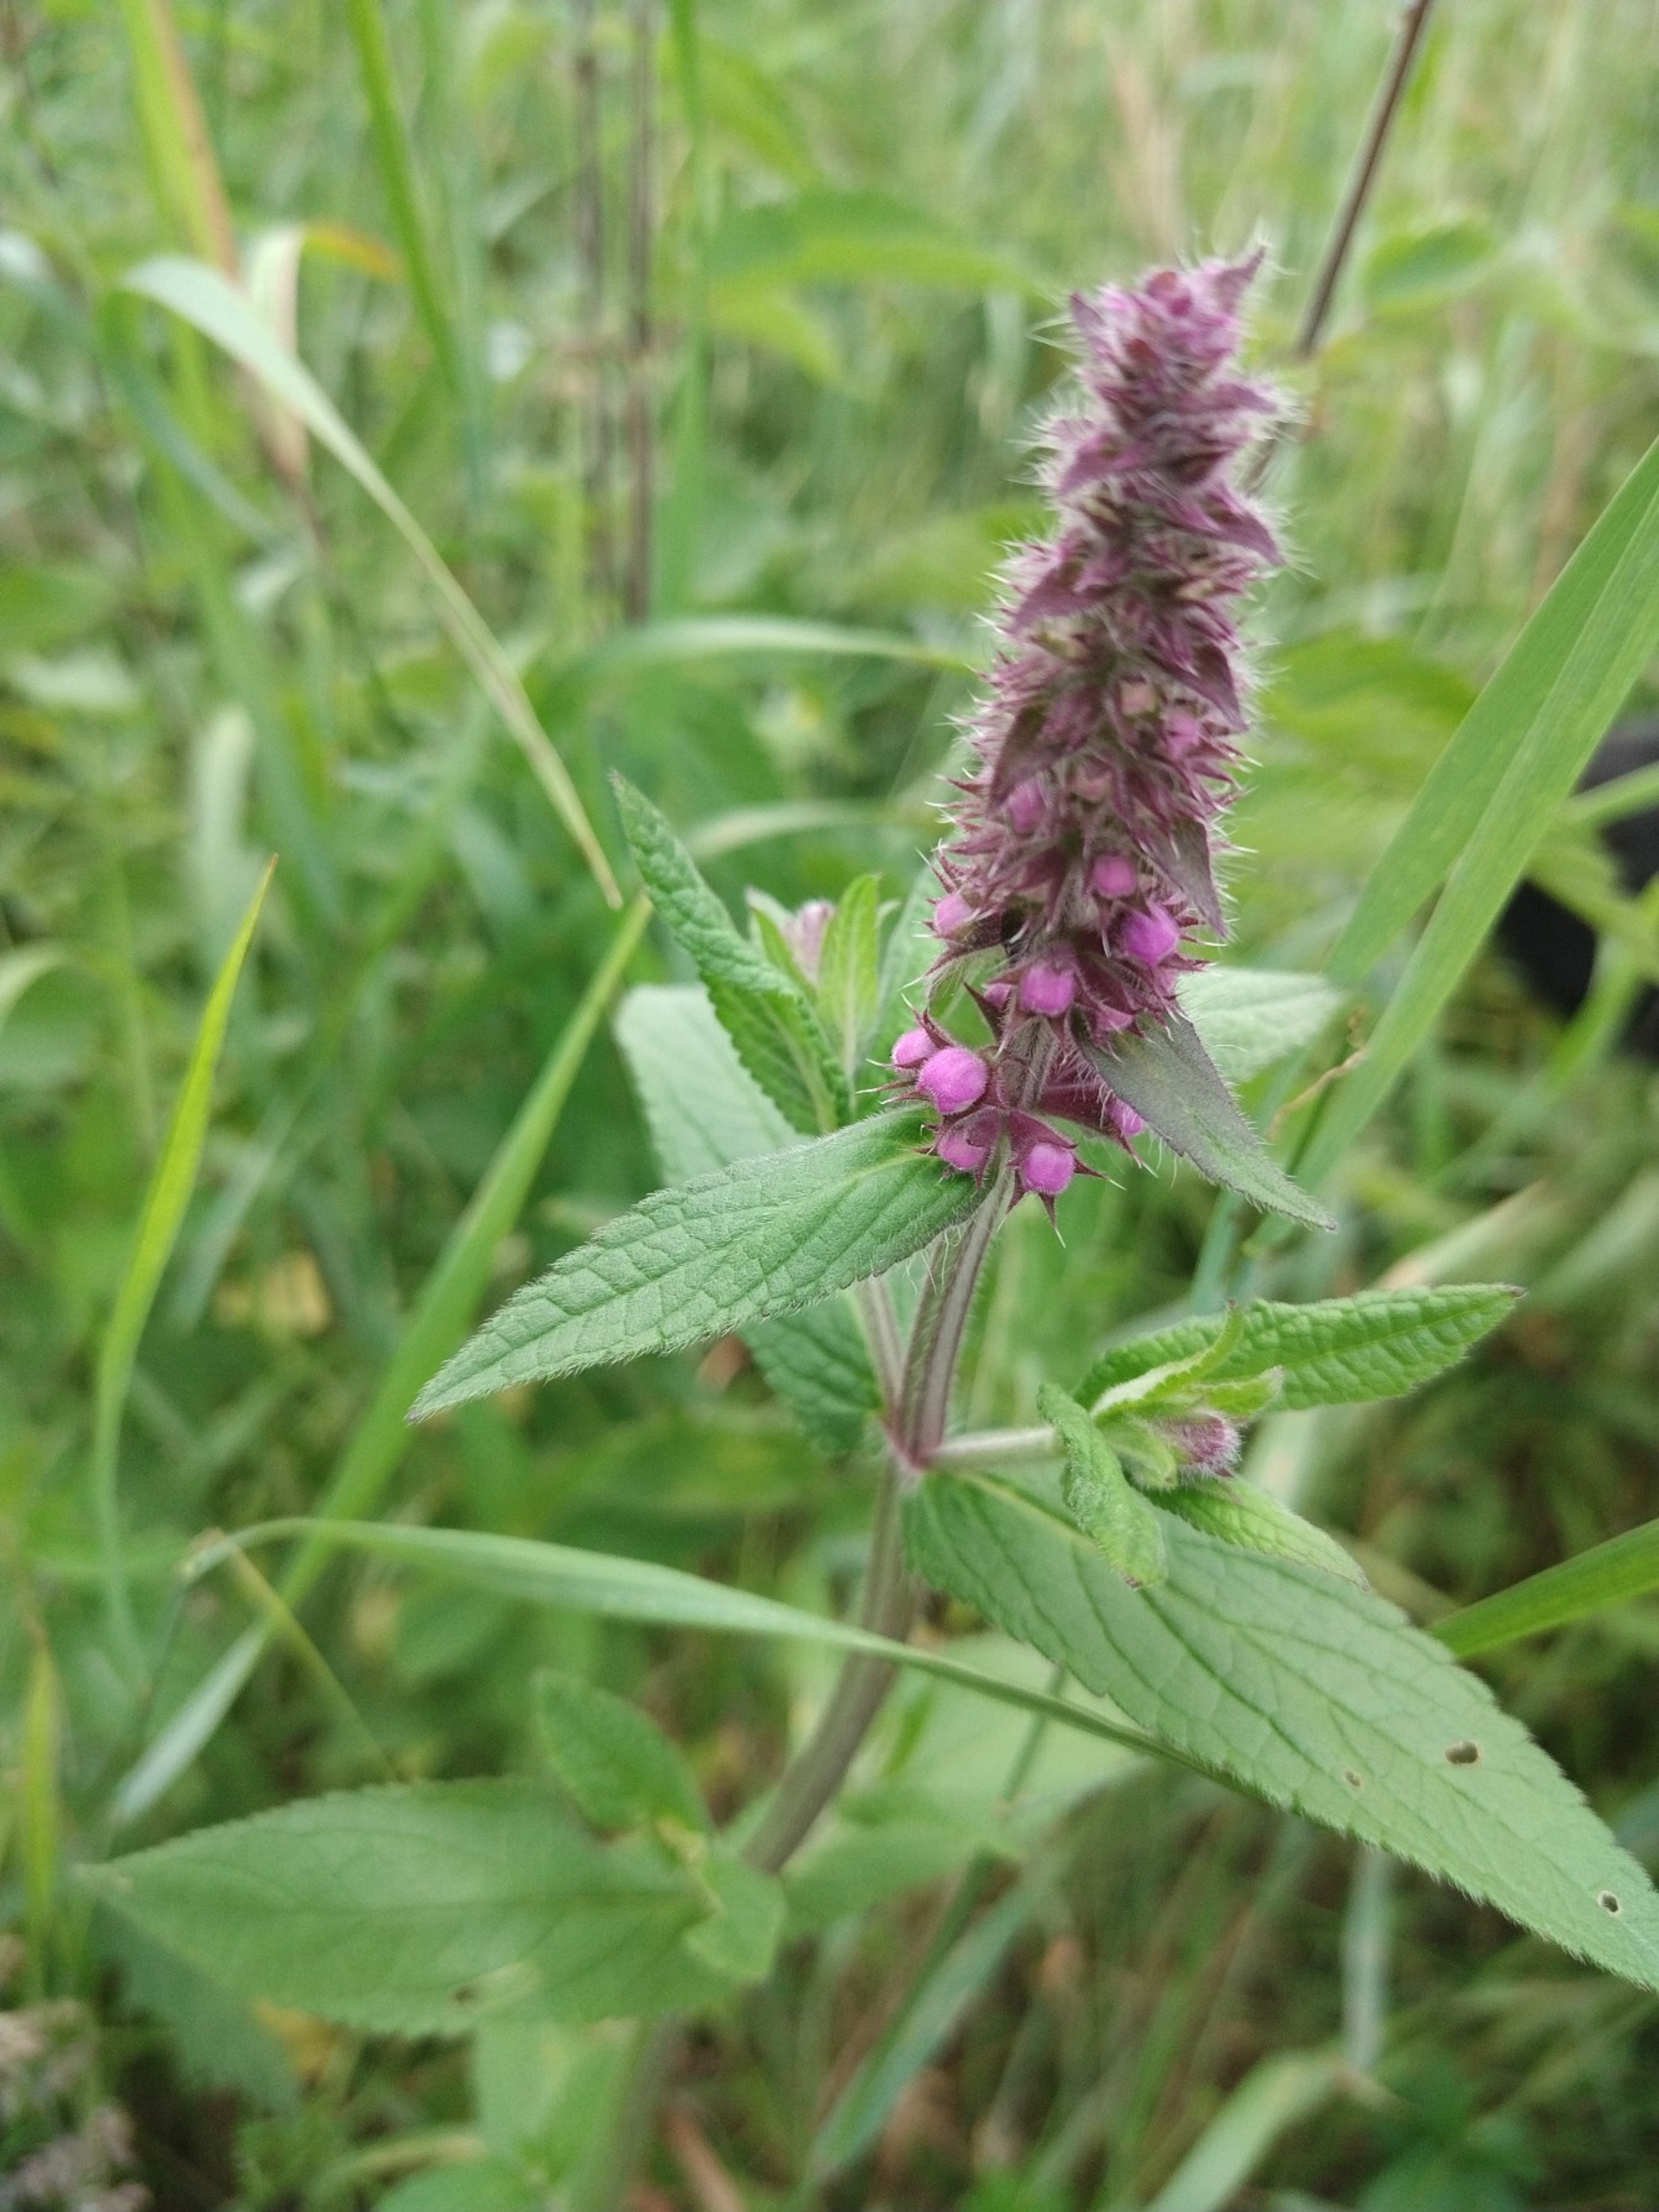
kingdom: Plantae
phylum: Tracheophyta
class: Magnoliopsida
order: Lamiales
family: Lamiaceae
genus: Stachys
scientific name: Stachys palustris
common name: Kær-galtetand
